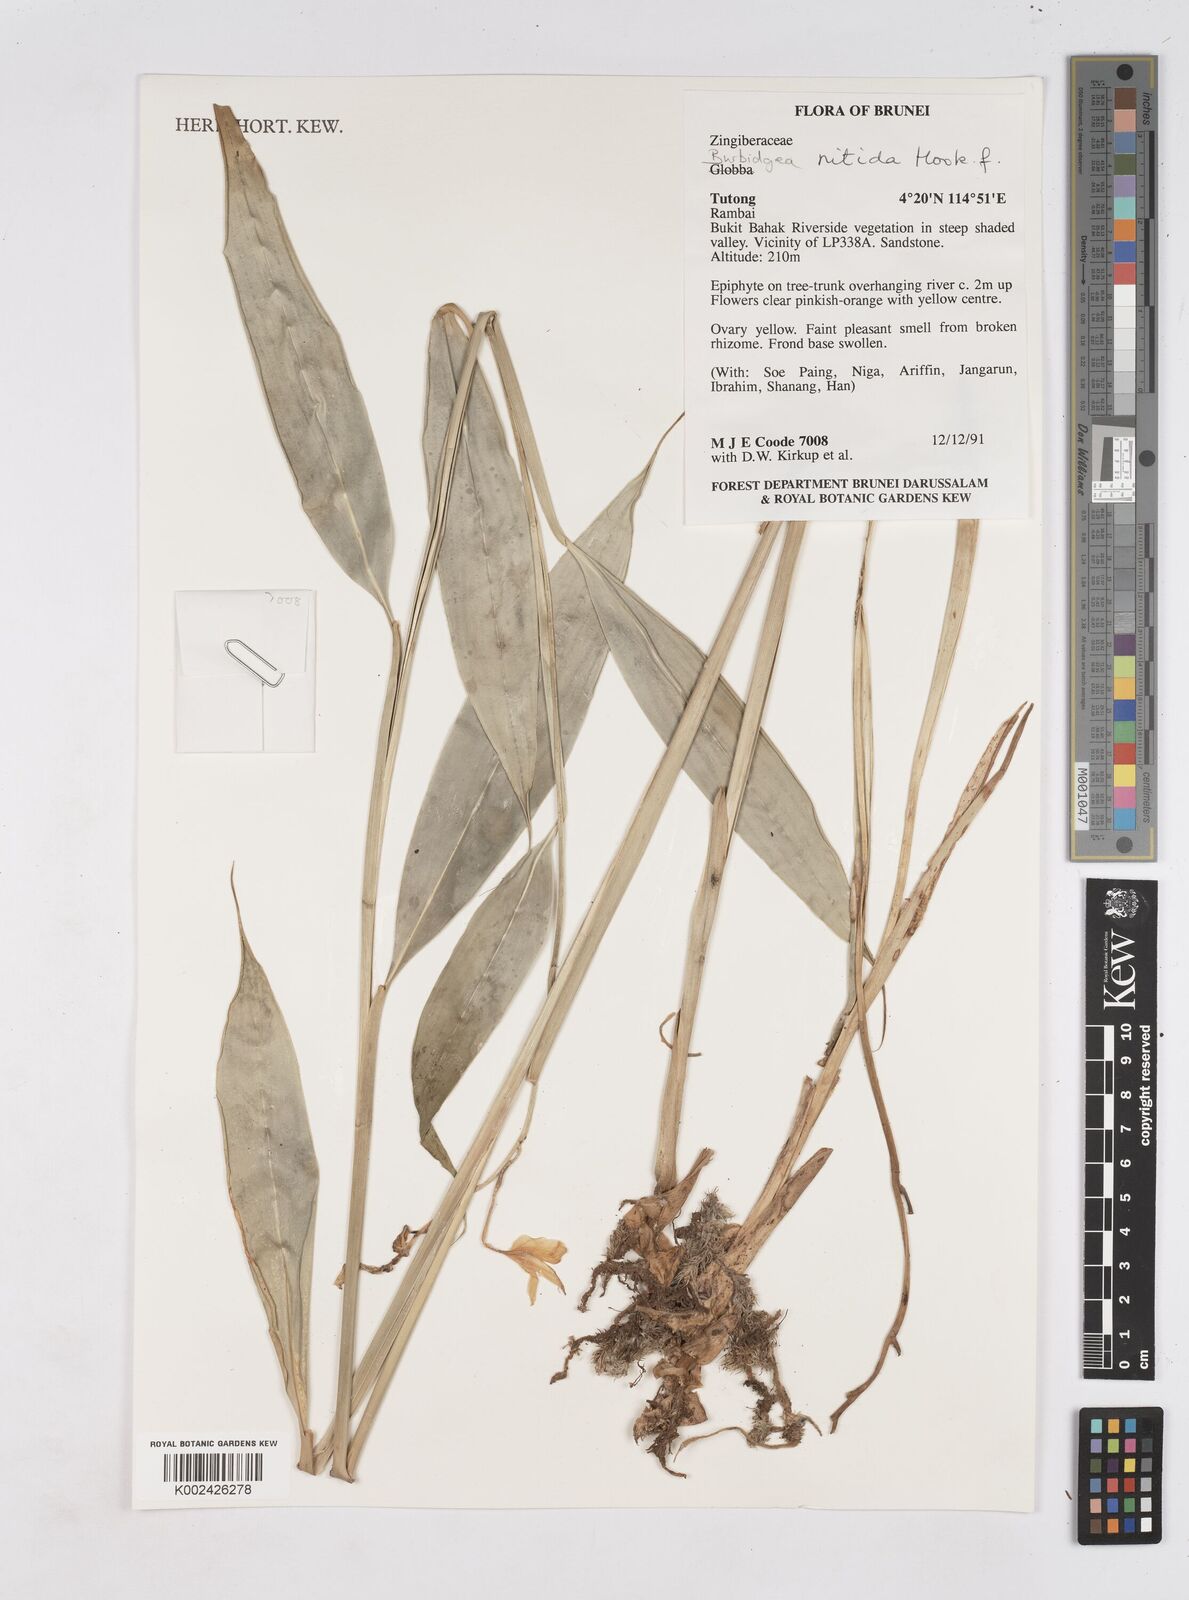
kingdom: Plantae
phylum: Tracheophyta
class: Liliopsida
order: Zingiberales
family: Zingiberaceae
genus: Burbidgea
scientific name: Burbidgea nitida
